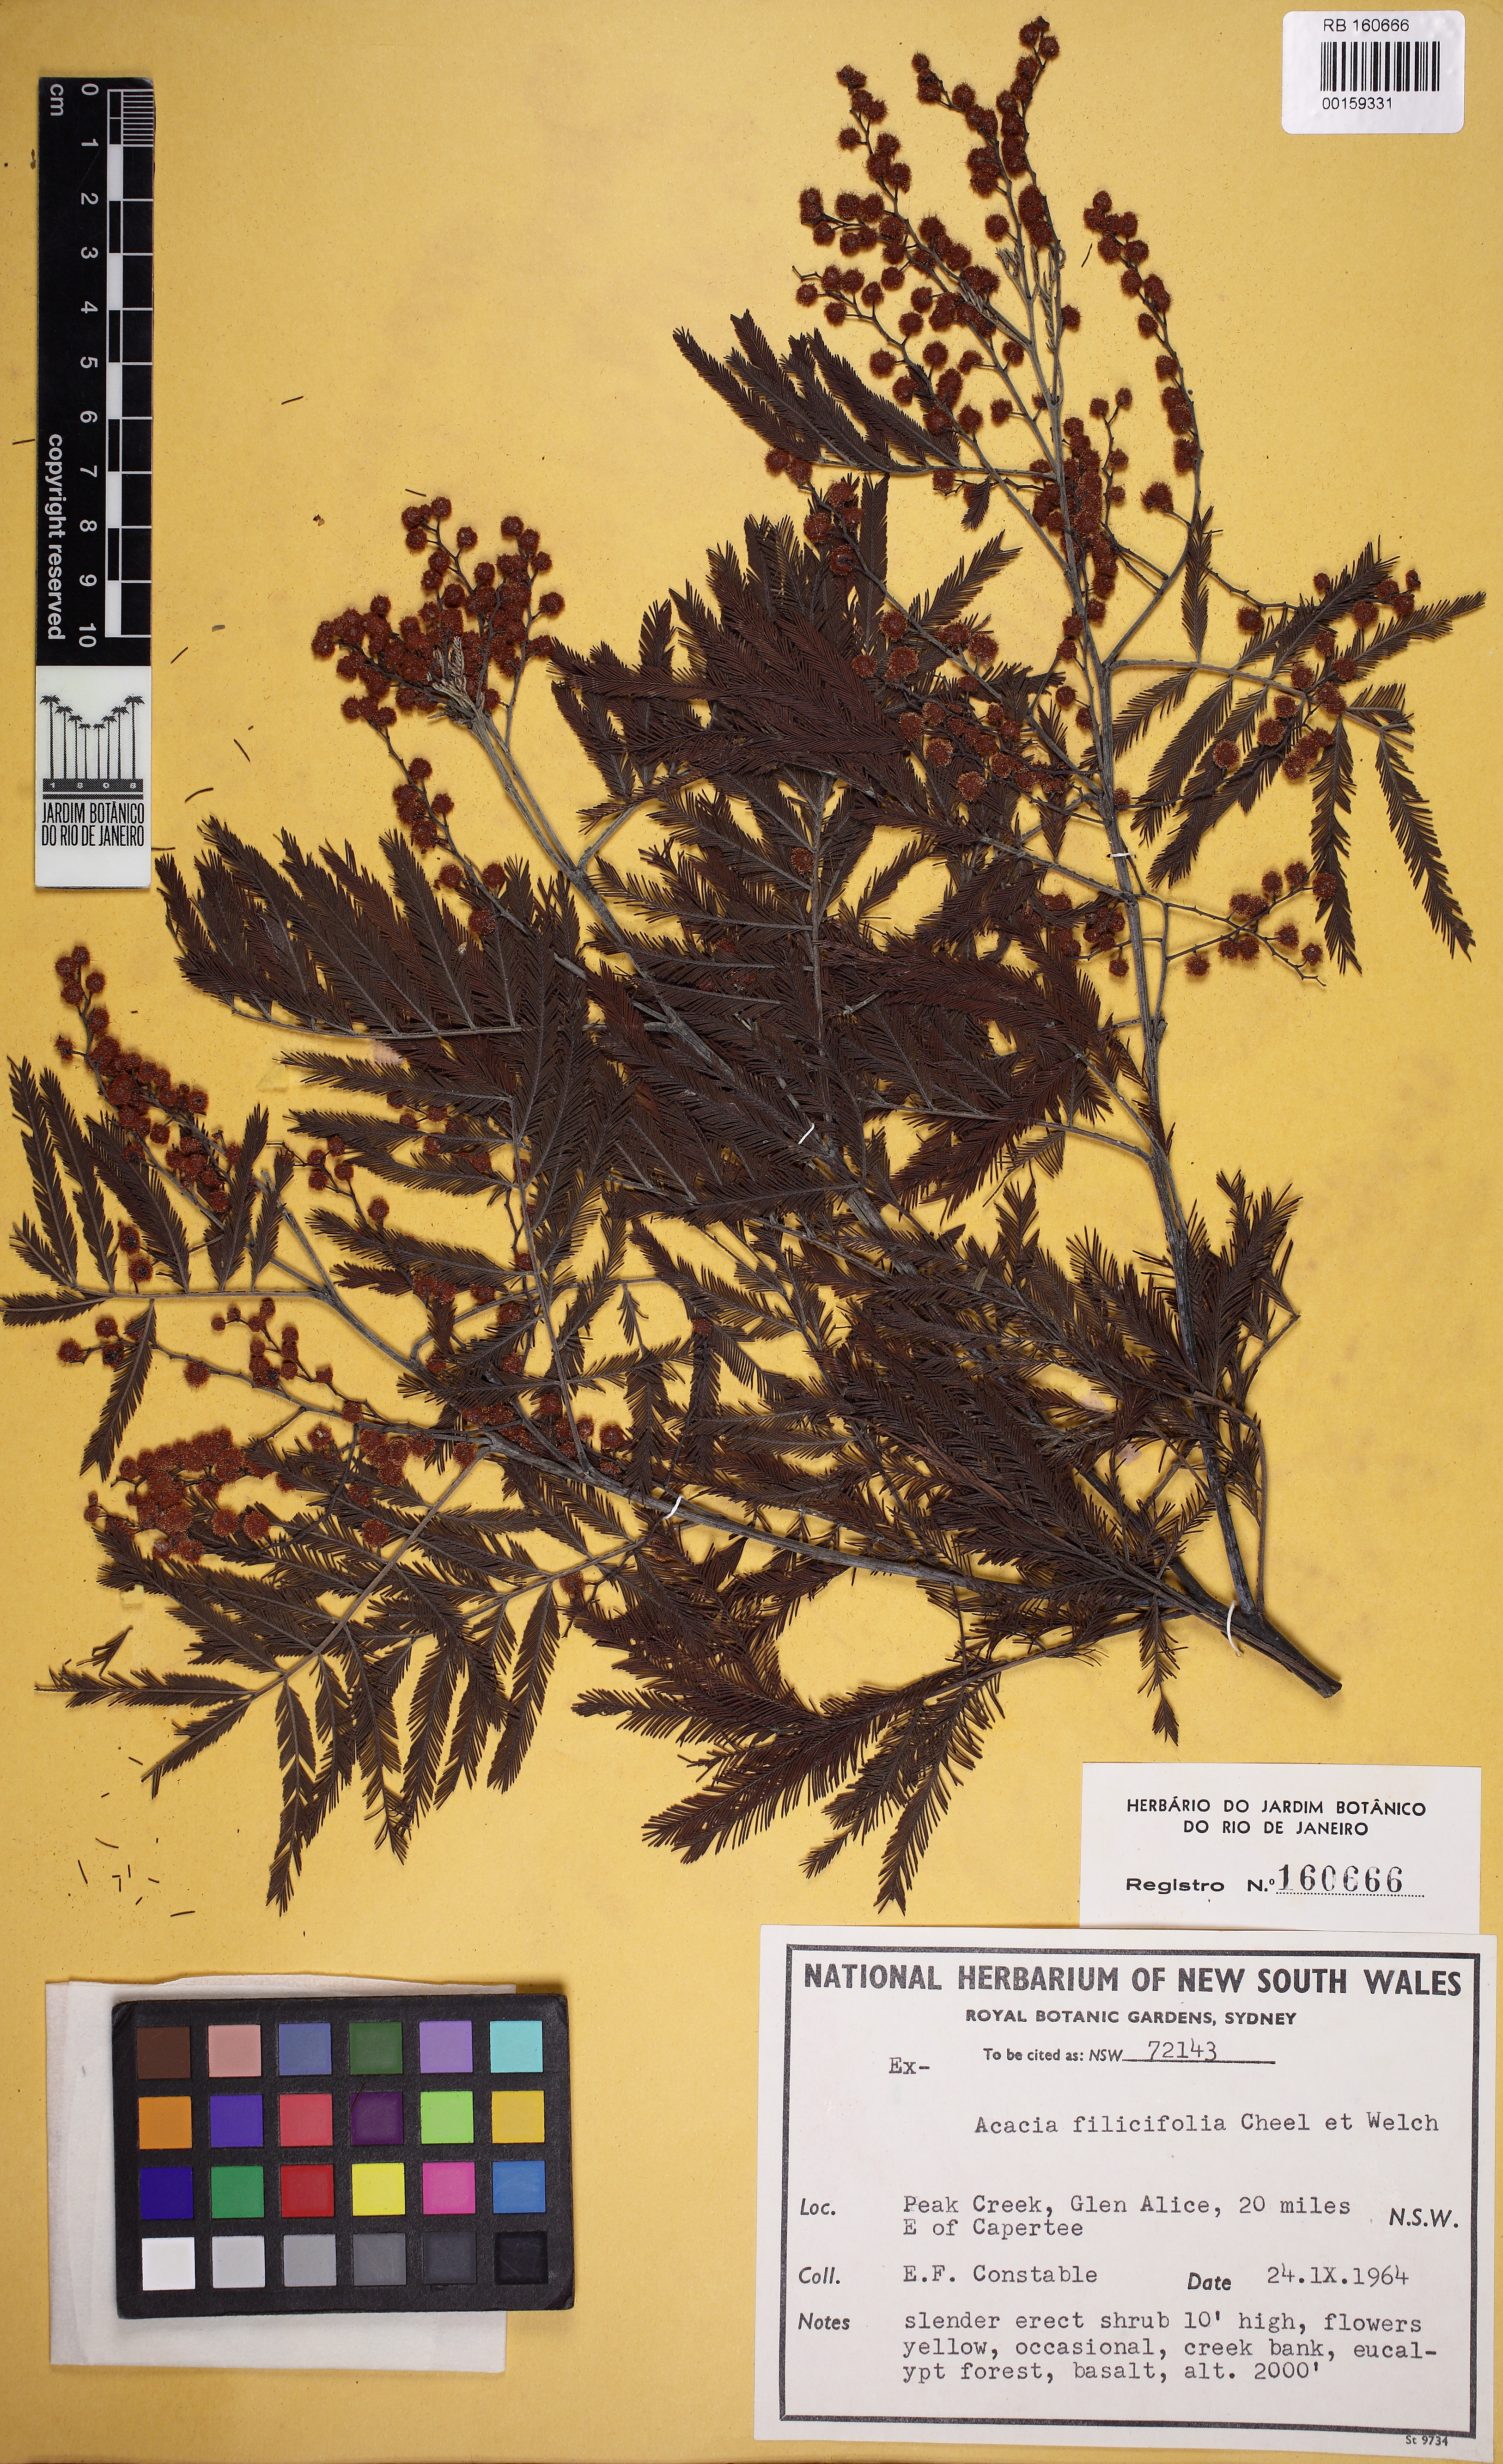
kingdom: Plantae
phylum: Tracheophyta
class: Magnoliopsida
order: Fabales
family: Fabaceae
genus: Acacia
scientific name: Acacia filicifolia
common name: Fern-leaved wattle
